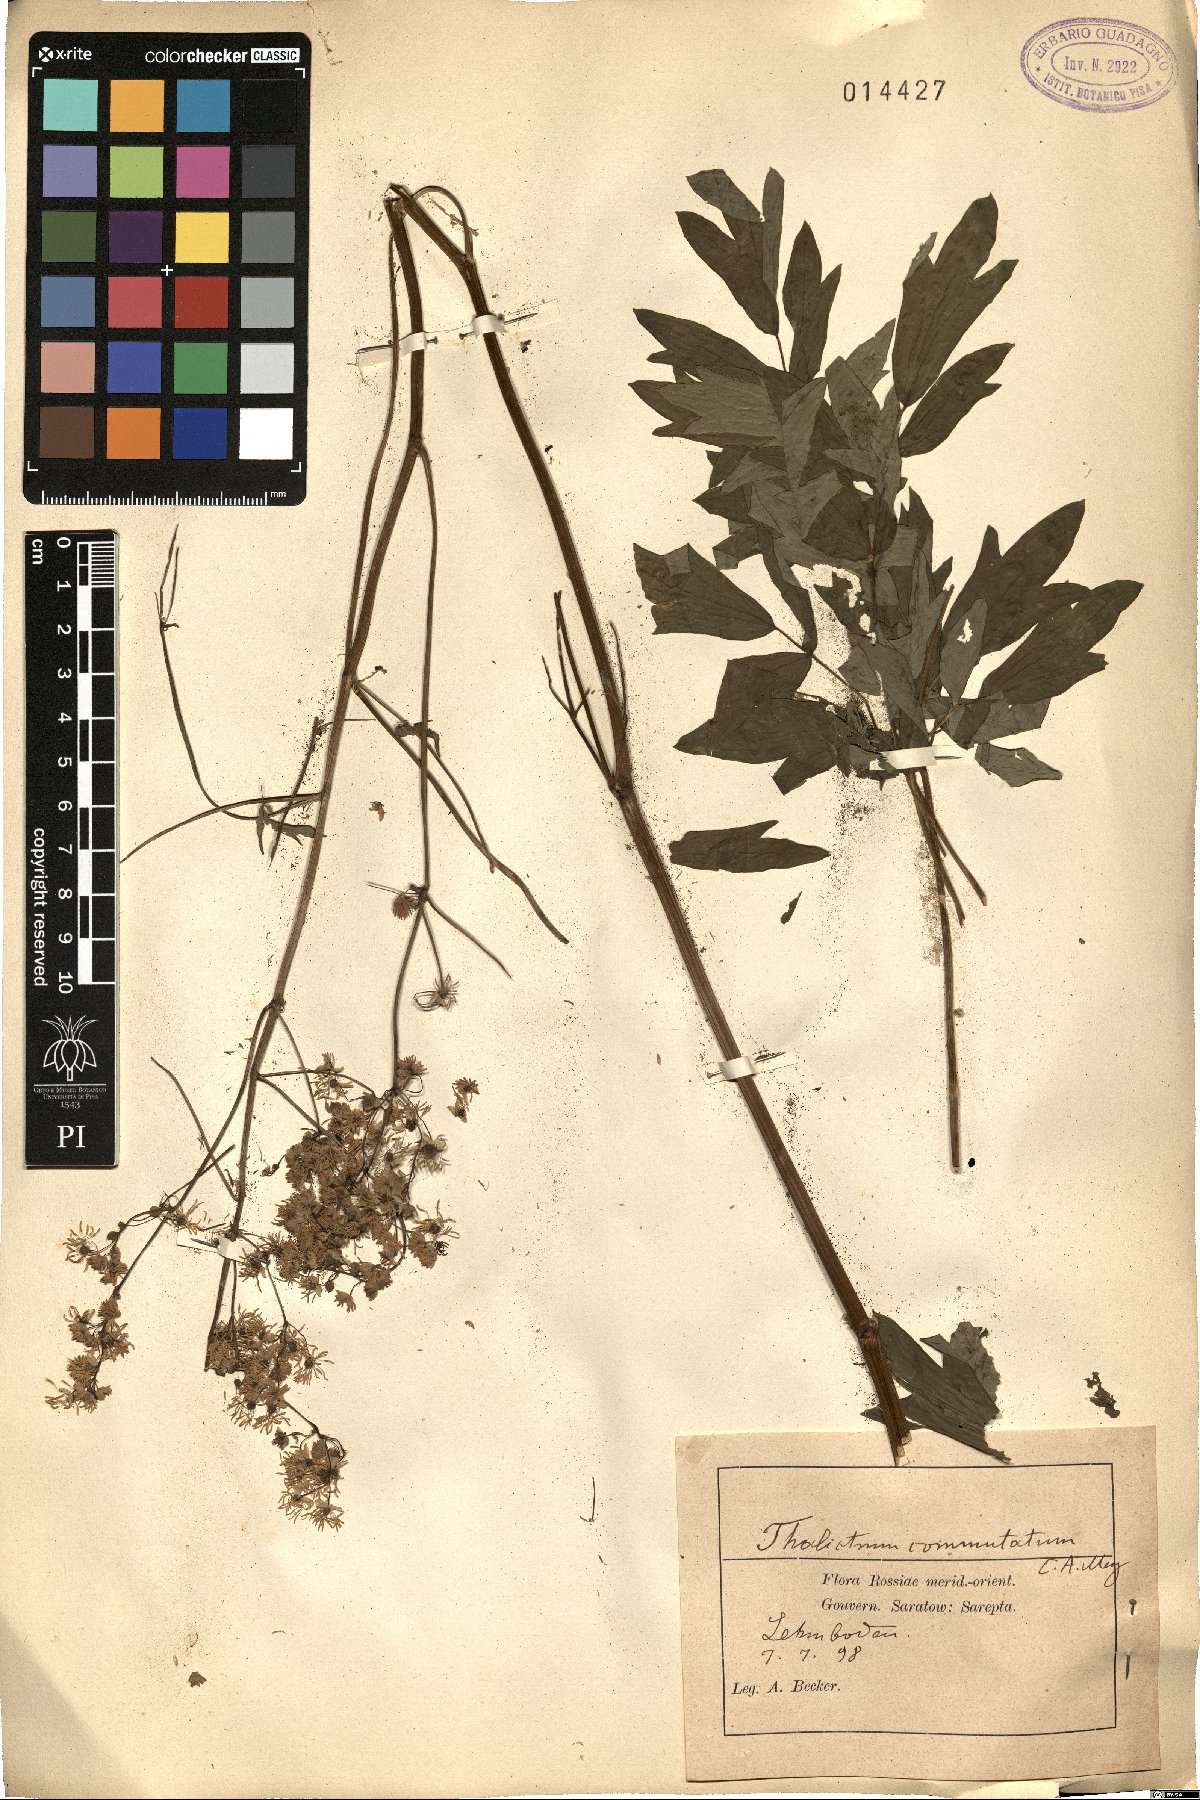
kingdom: Plantae
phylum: Tracheophyta
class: Magnoliopsida
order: Ranunculales
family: Ranunculaceae
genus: Thalictrum
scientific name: Thalictrum flavum
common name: Common meadow-rue
